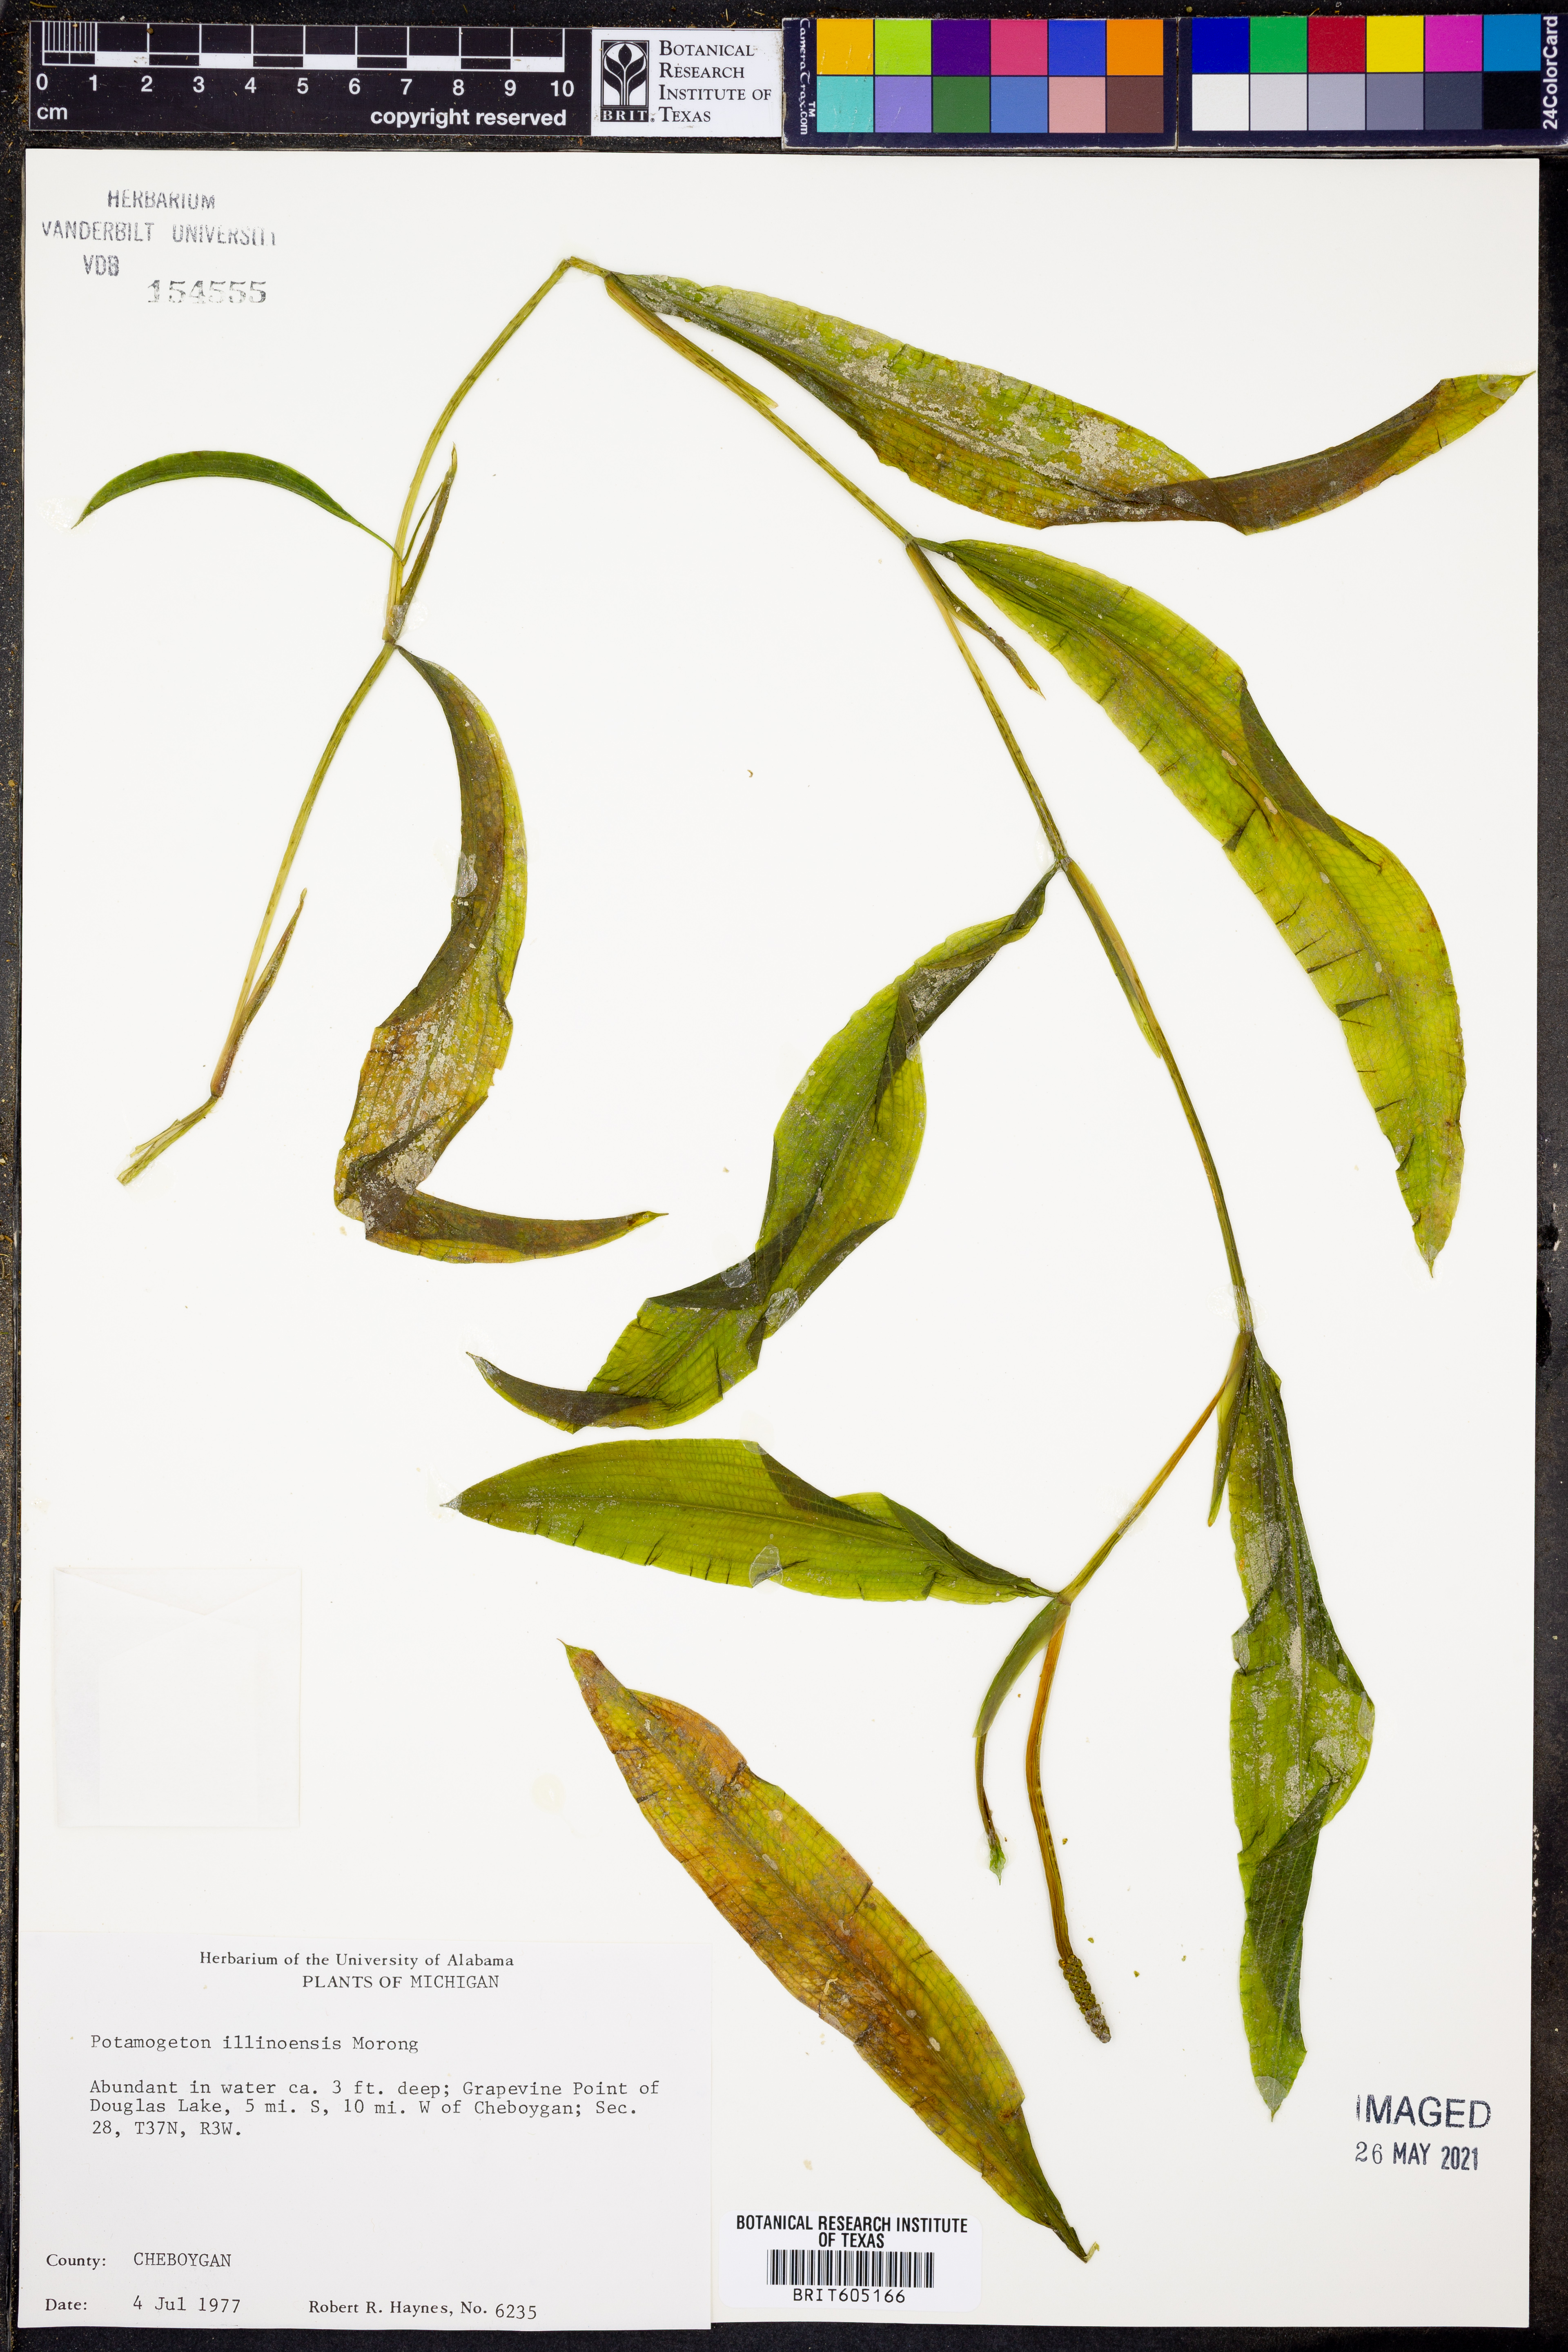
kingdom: Plantae
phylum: Tracheophyta
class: Liliopsida
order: Alismatales
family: Potamogetonaceae
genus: Potamogeton
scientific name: Potamogeton illinoensis
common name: Illinois pondweed
